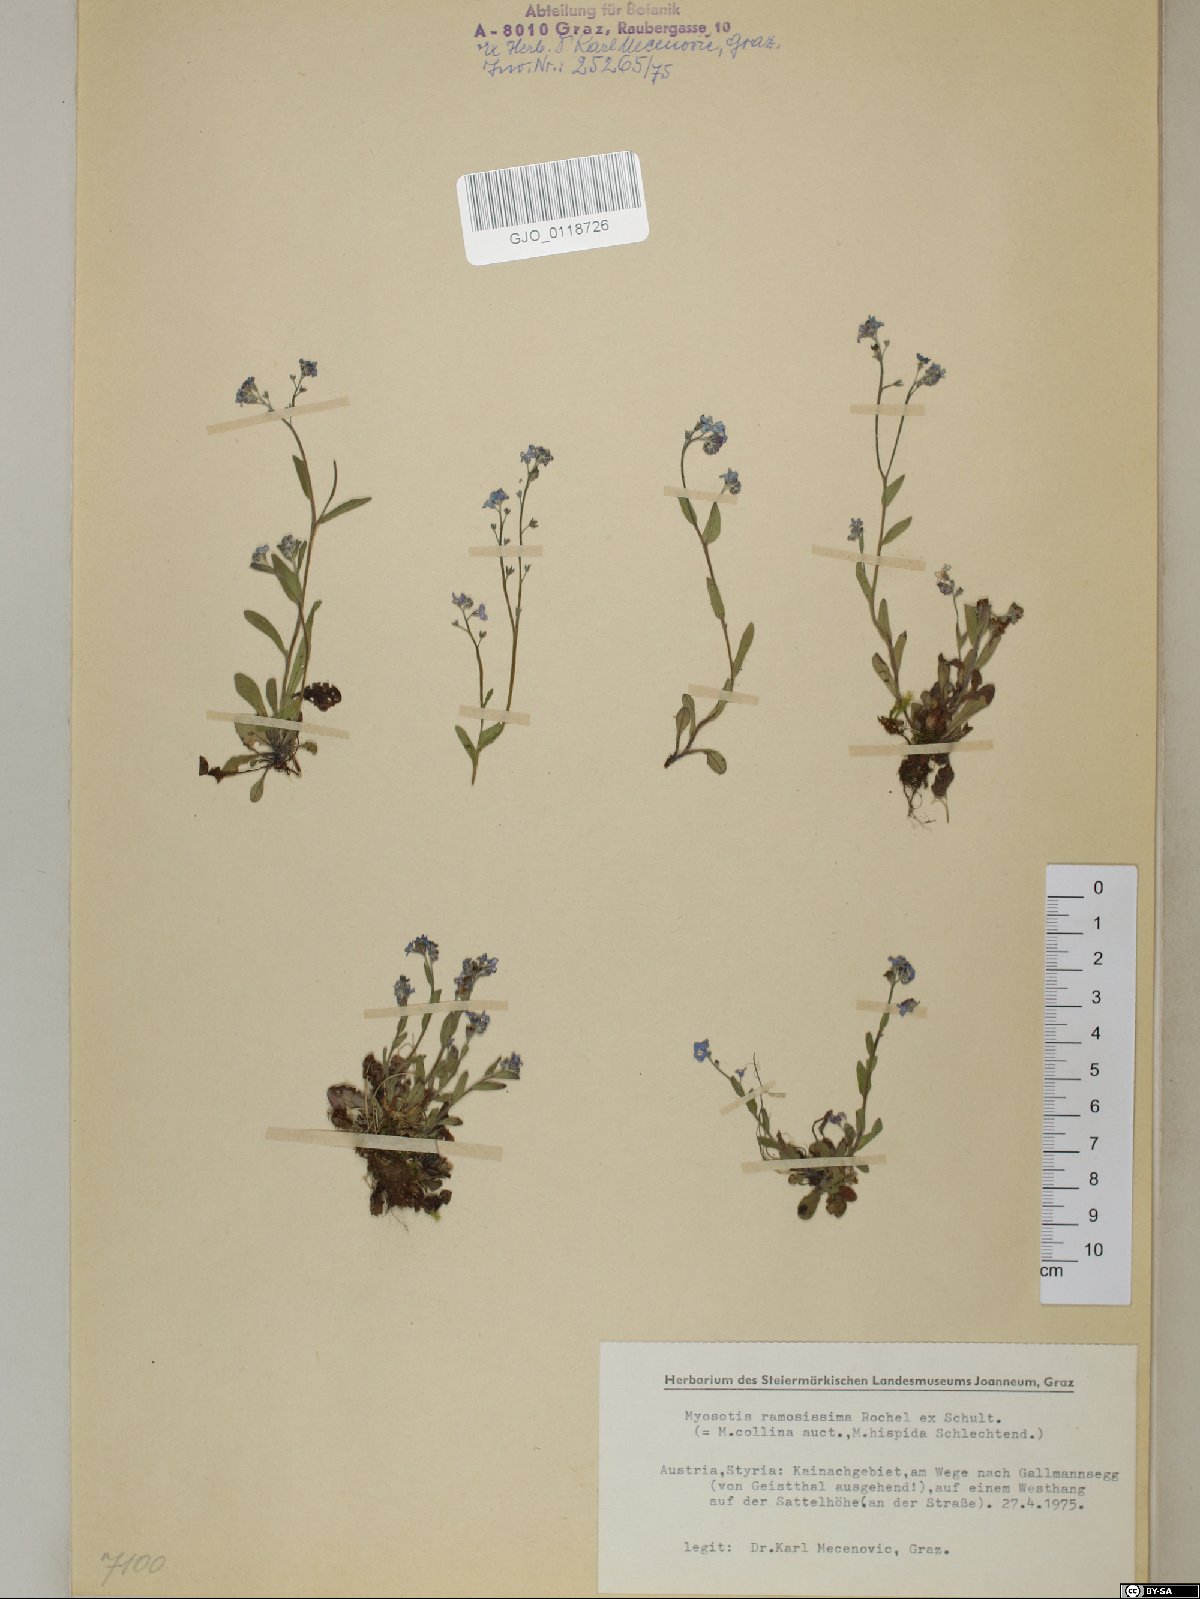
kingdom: Plantae
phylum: Tracheophyta
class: Magnoliopsida
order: Boraginales
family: Boraginaceae
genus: Myosotis
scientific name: Myosotis ramosissima
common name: Early forget-me-not
